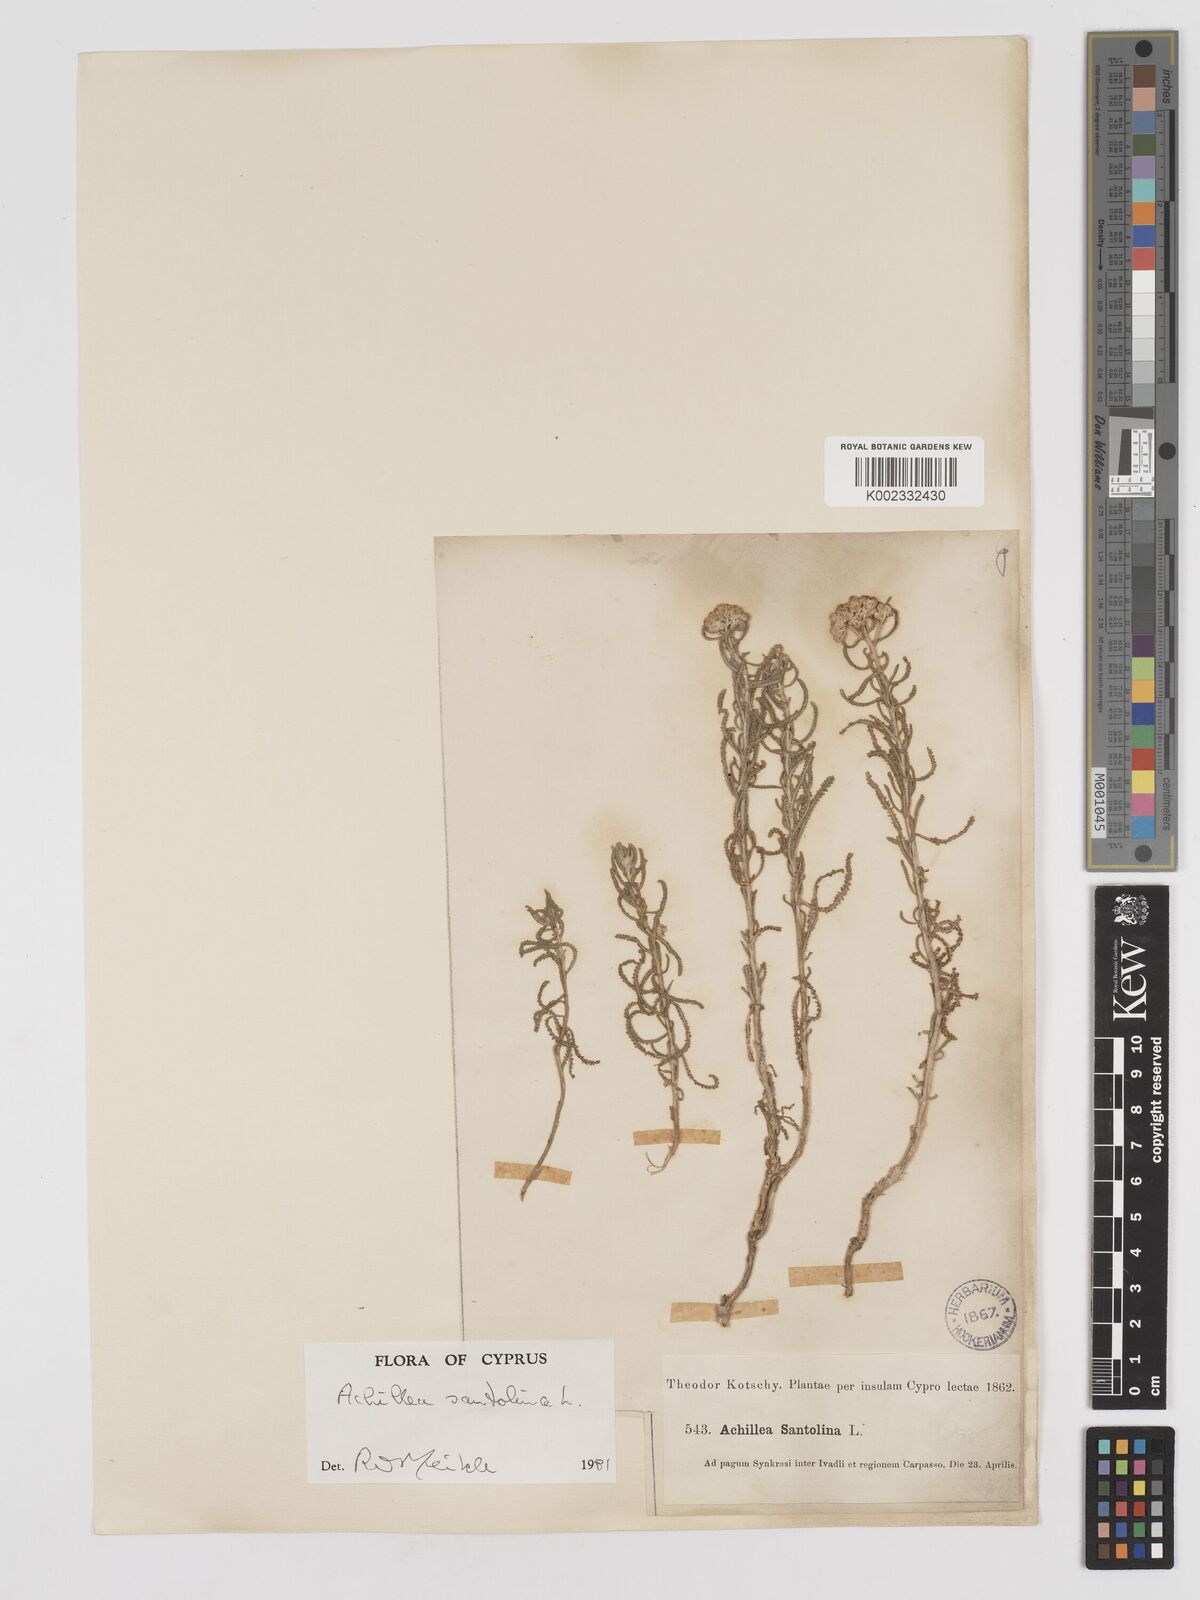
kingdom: Plantae
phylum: Tracheophyta
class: Magnoliopsida
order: Asterales
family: Asteraceae
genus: Achillea
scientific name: Achillea tenuifolia
